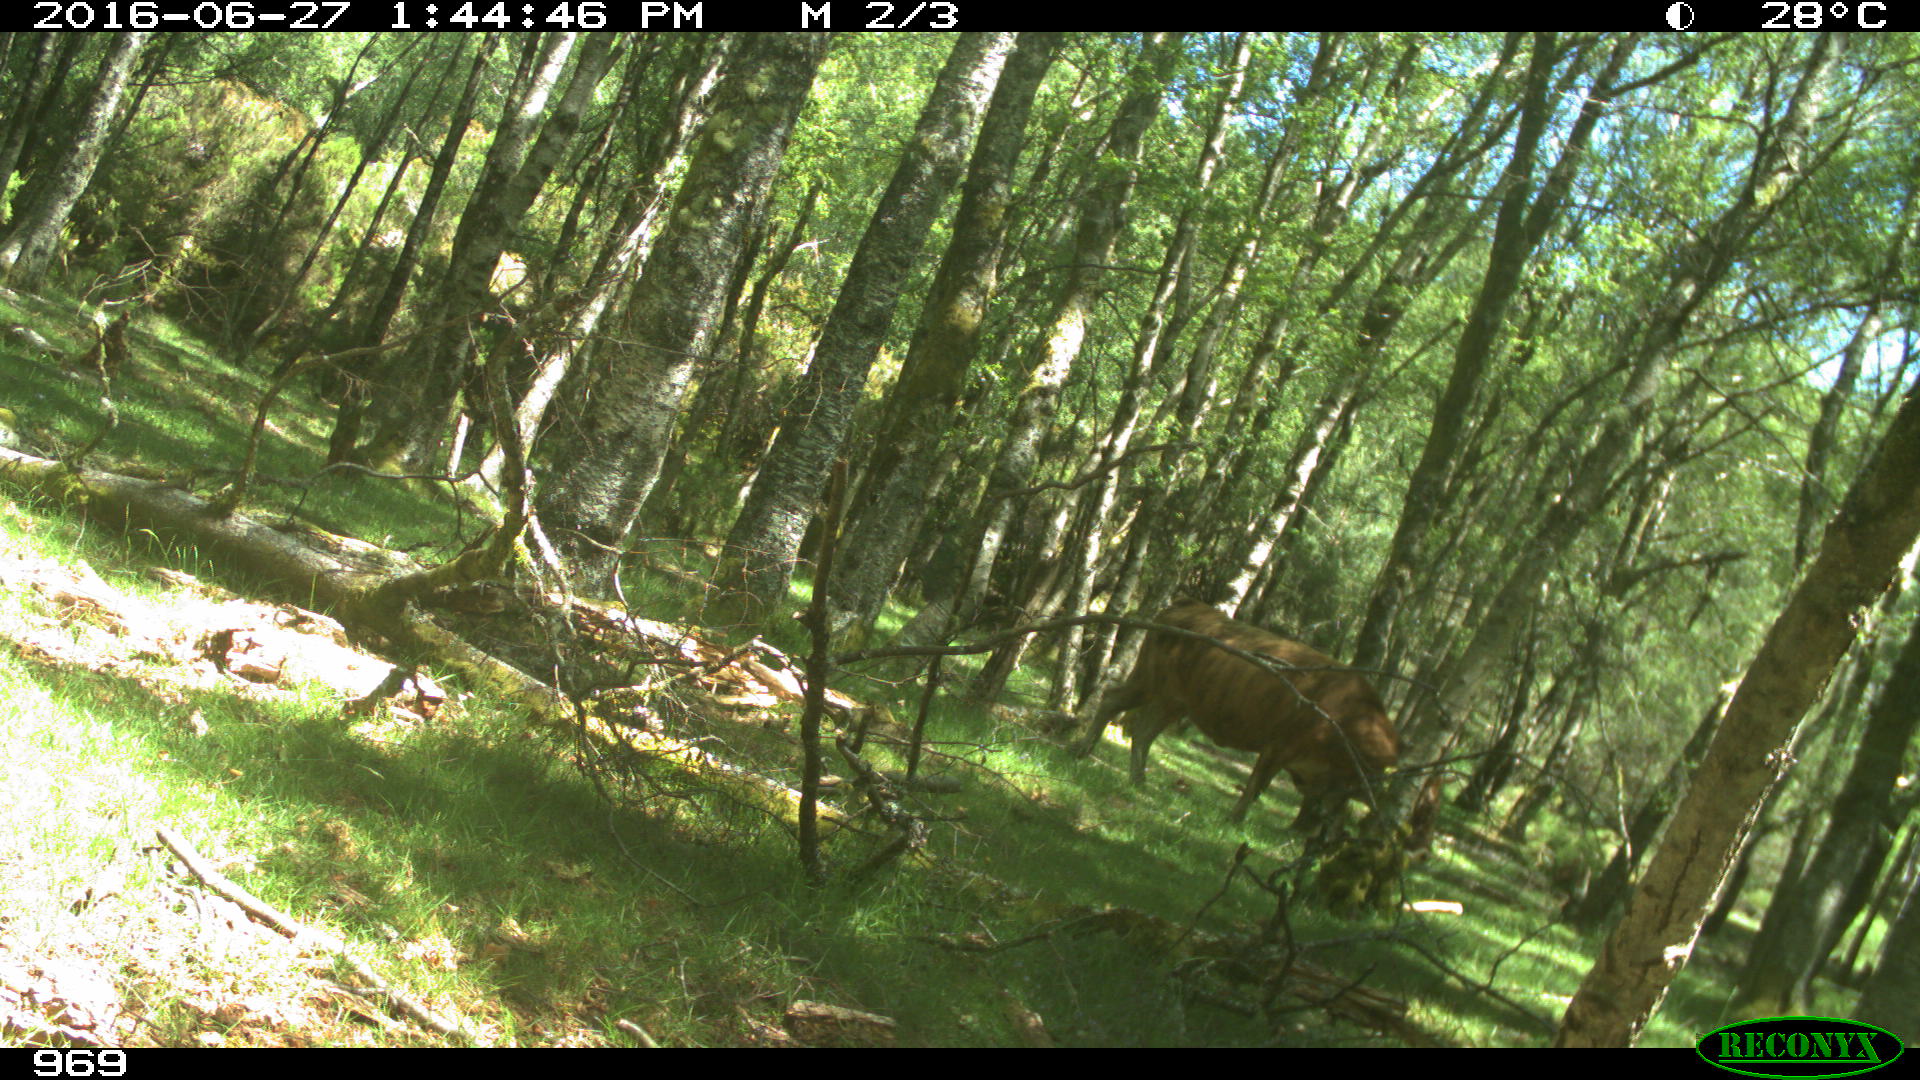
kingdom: Animalia
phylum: Chordata
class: Mammalia
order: Artiodactyla
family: Bovidae
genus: Bos
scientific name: Bos taurus
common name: Domesticated cattle
